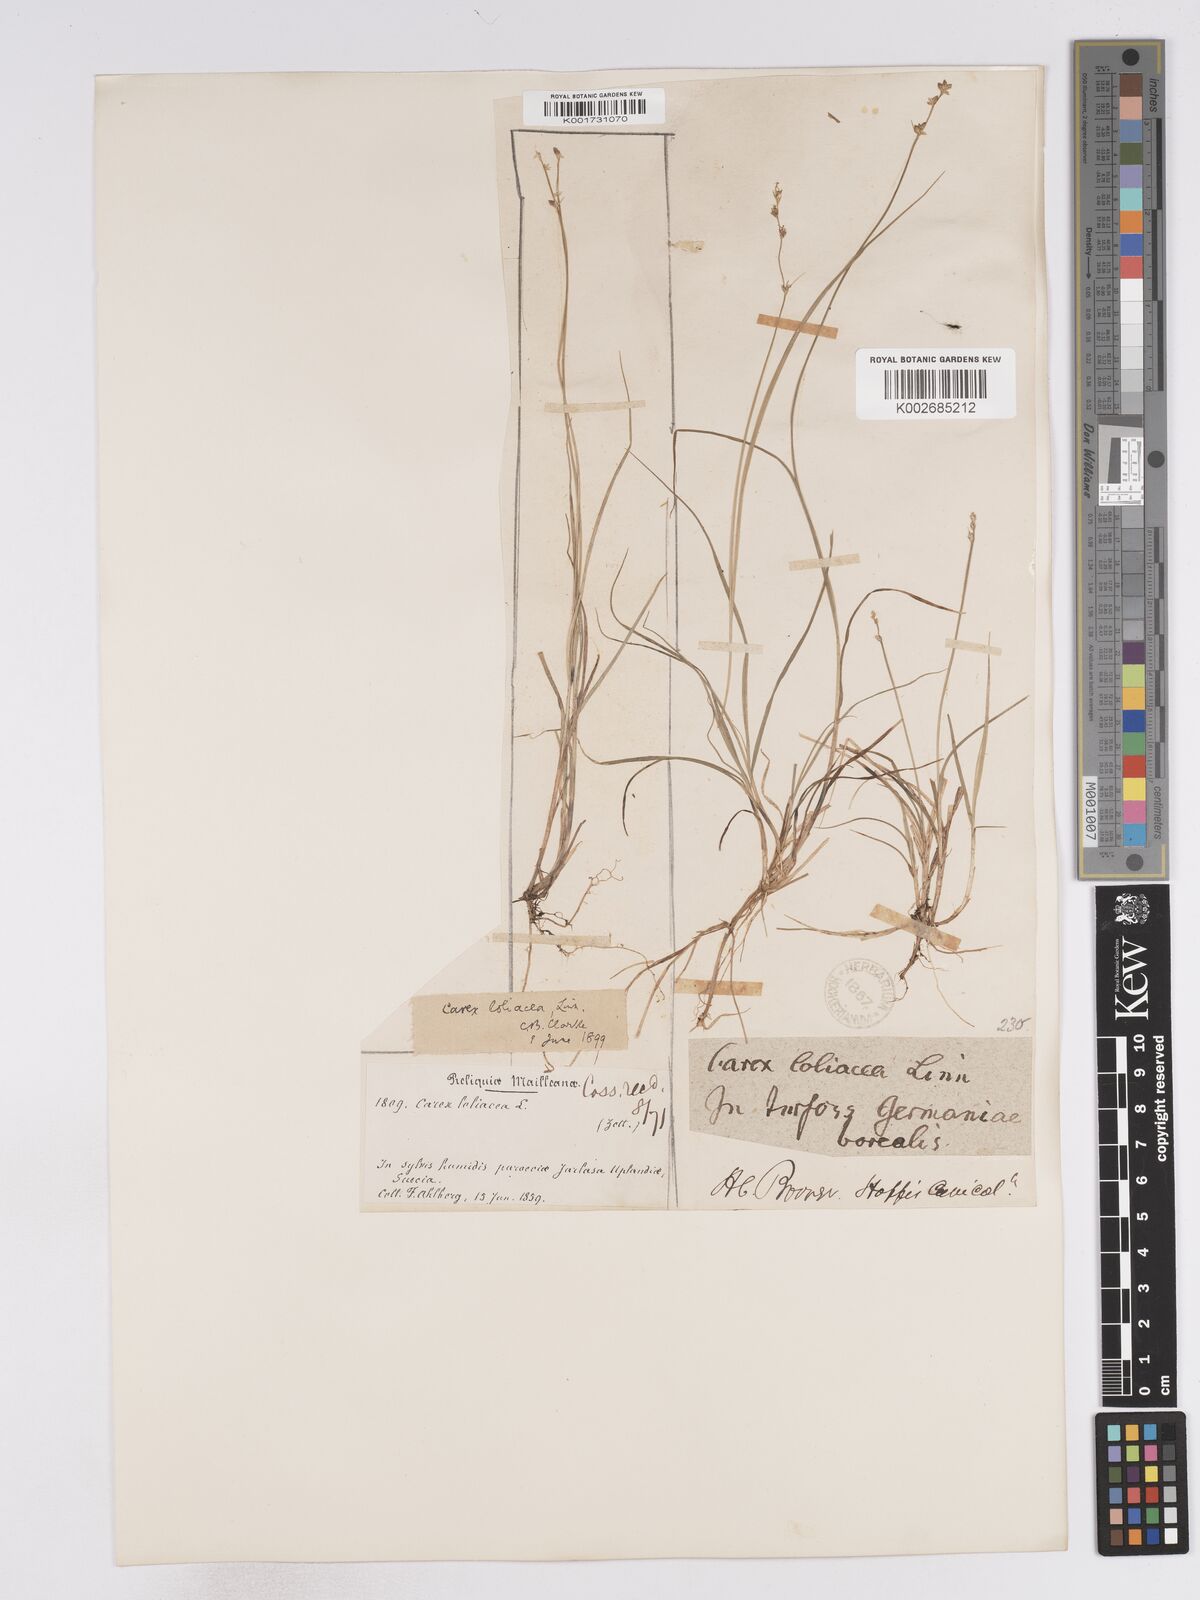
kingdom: Plantae
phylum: Tracheophyta
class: Liliopsida
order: Poales
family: Cyperaceae
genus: Carex
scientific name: Carex loliacea
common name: Ryegrass sedge
